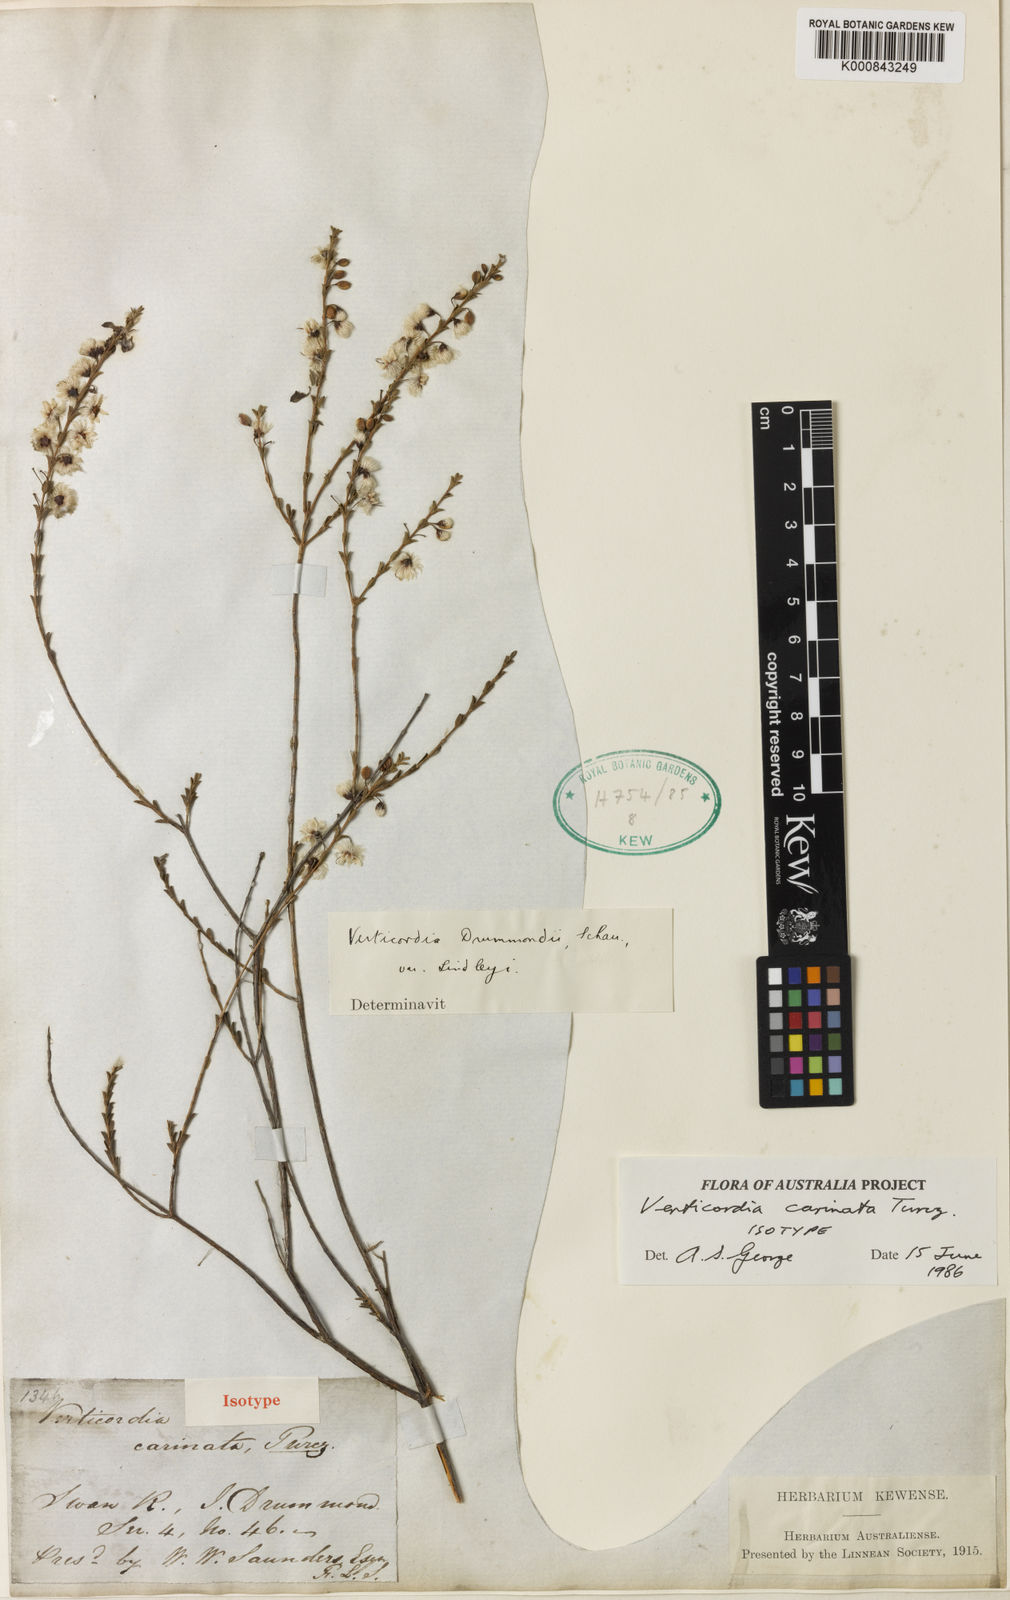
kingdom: Plantae
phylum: Tracheophyta
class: Magnoliopsida
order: Myrtales
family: Myrtaceae
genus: Verticordia
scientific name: Verticordia carinata
